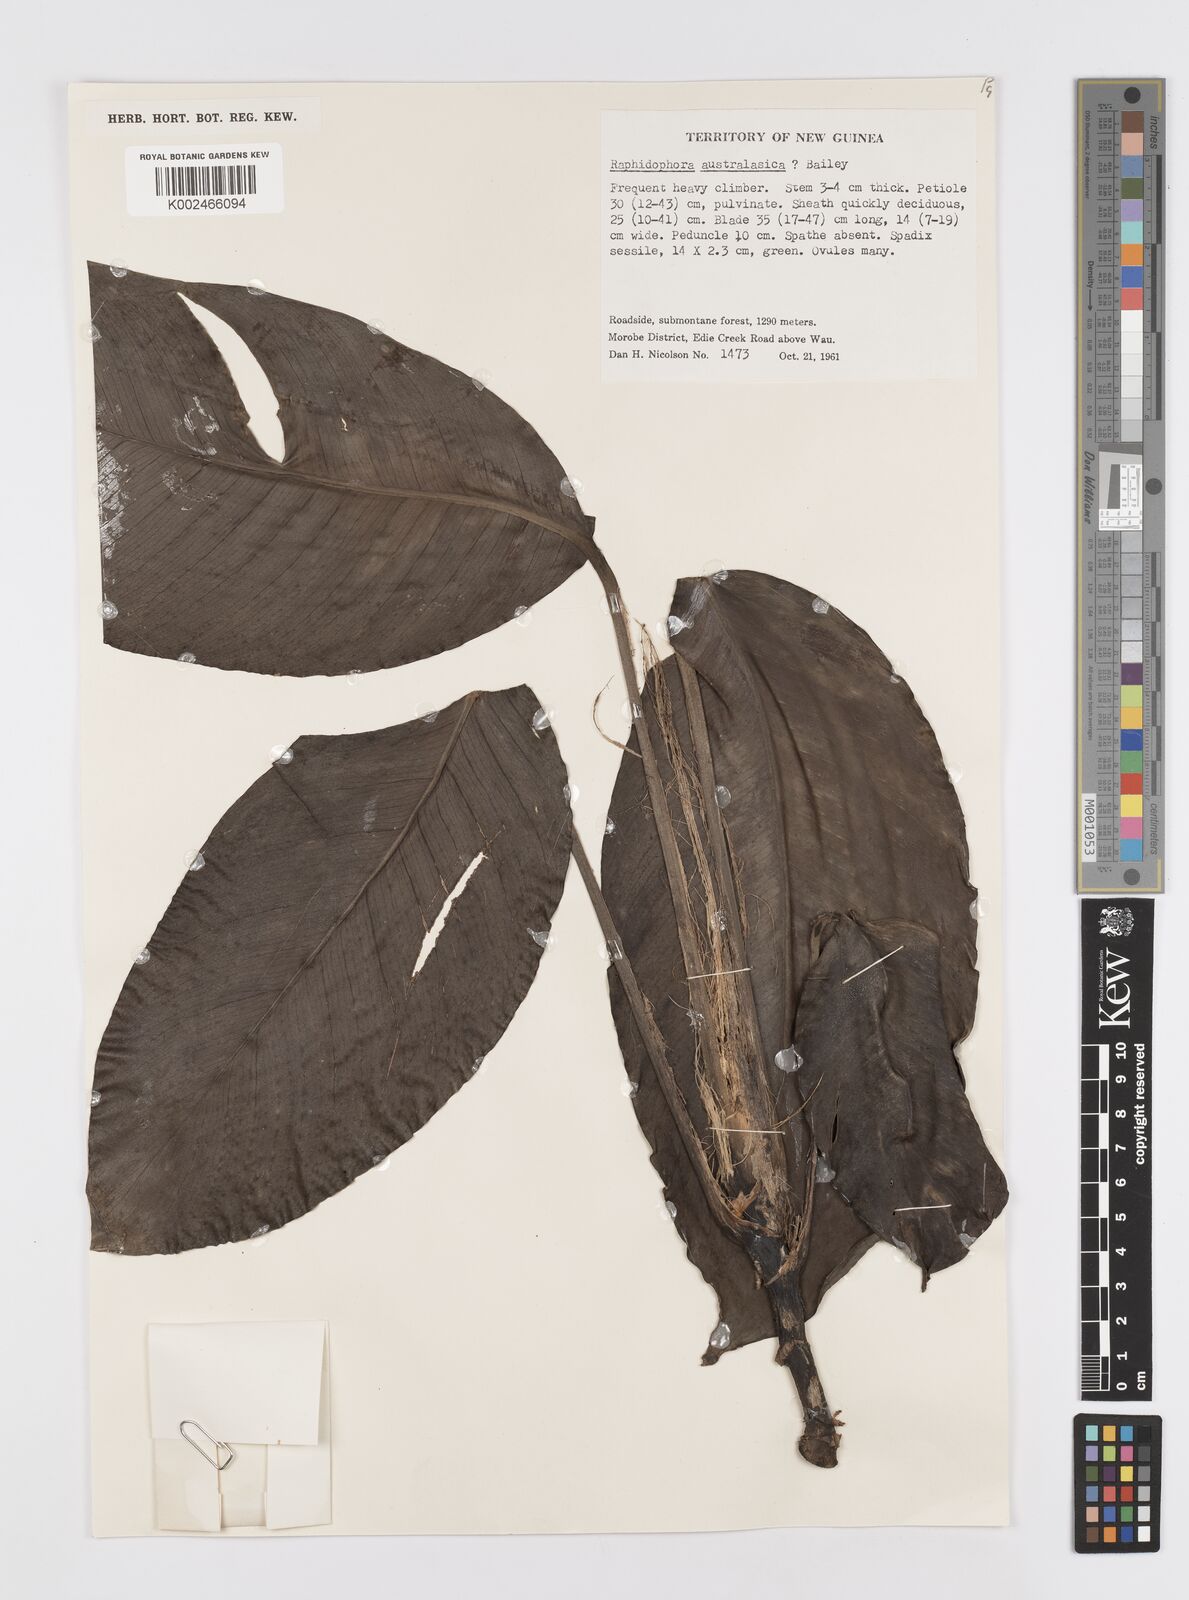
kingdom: Plantae
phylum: Tracheophyta
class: Liliopsida
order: Alismatales
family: Araceae
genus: Rhaphidophora
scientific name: Rhaphidophora intonsa
